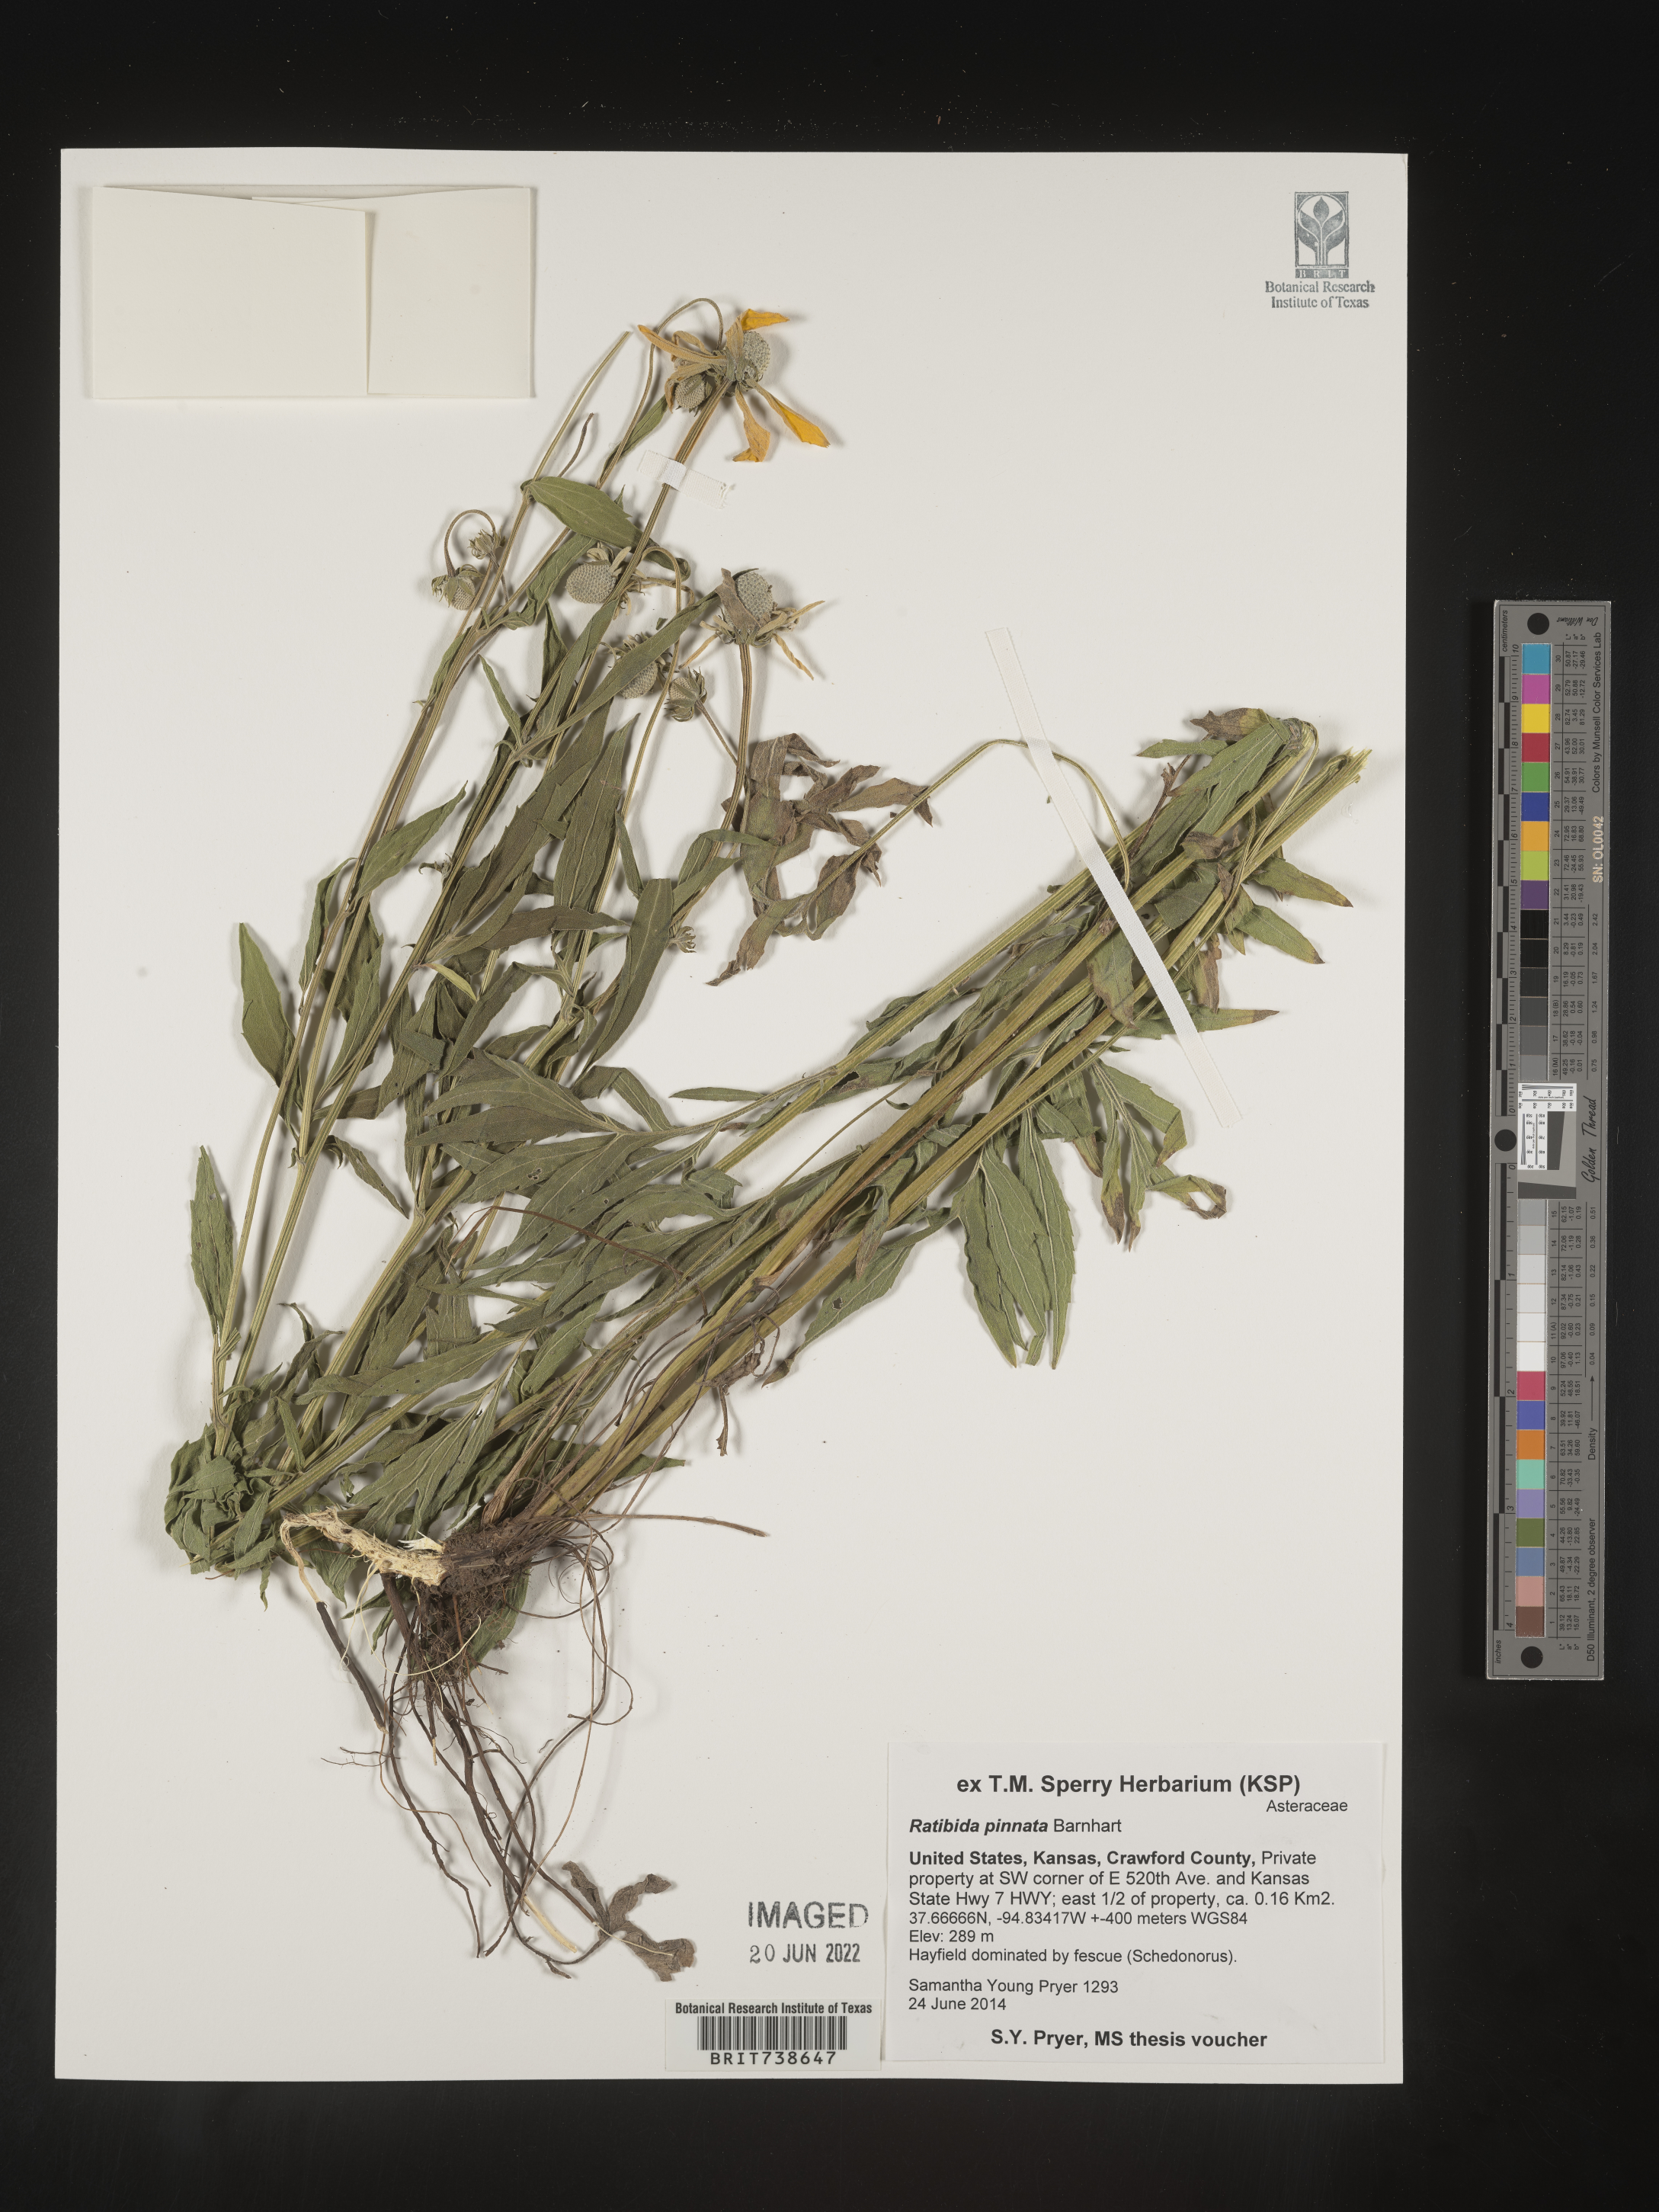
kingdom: Plantae
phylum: Tracheophyta
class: Magnoliopsida
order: Asterales
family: Asteraceae
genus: Ratibida
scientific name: Ratibida pinnata
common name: Drooping prairie-coneflower
